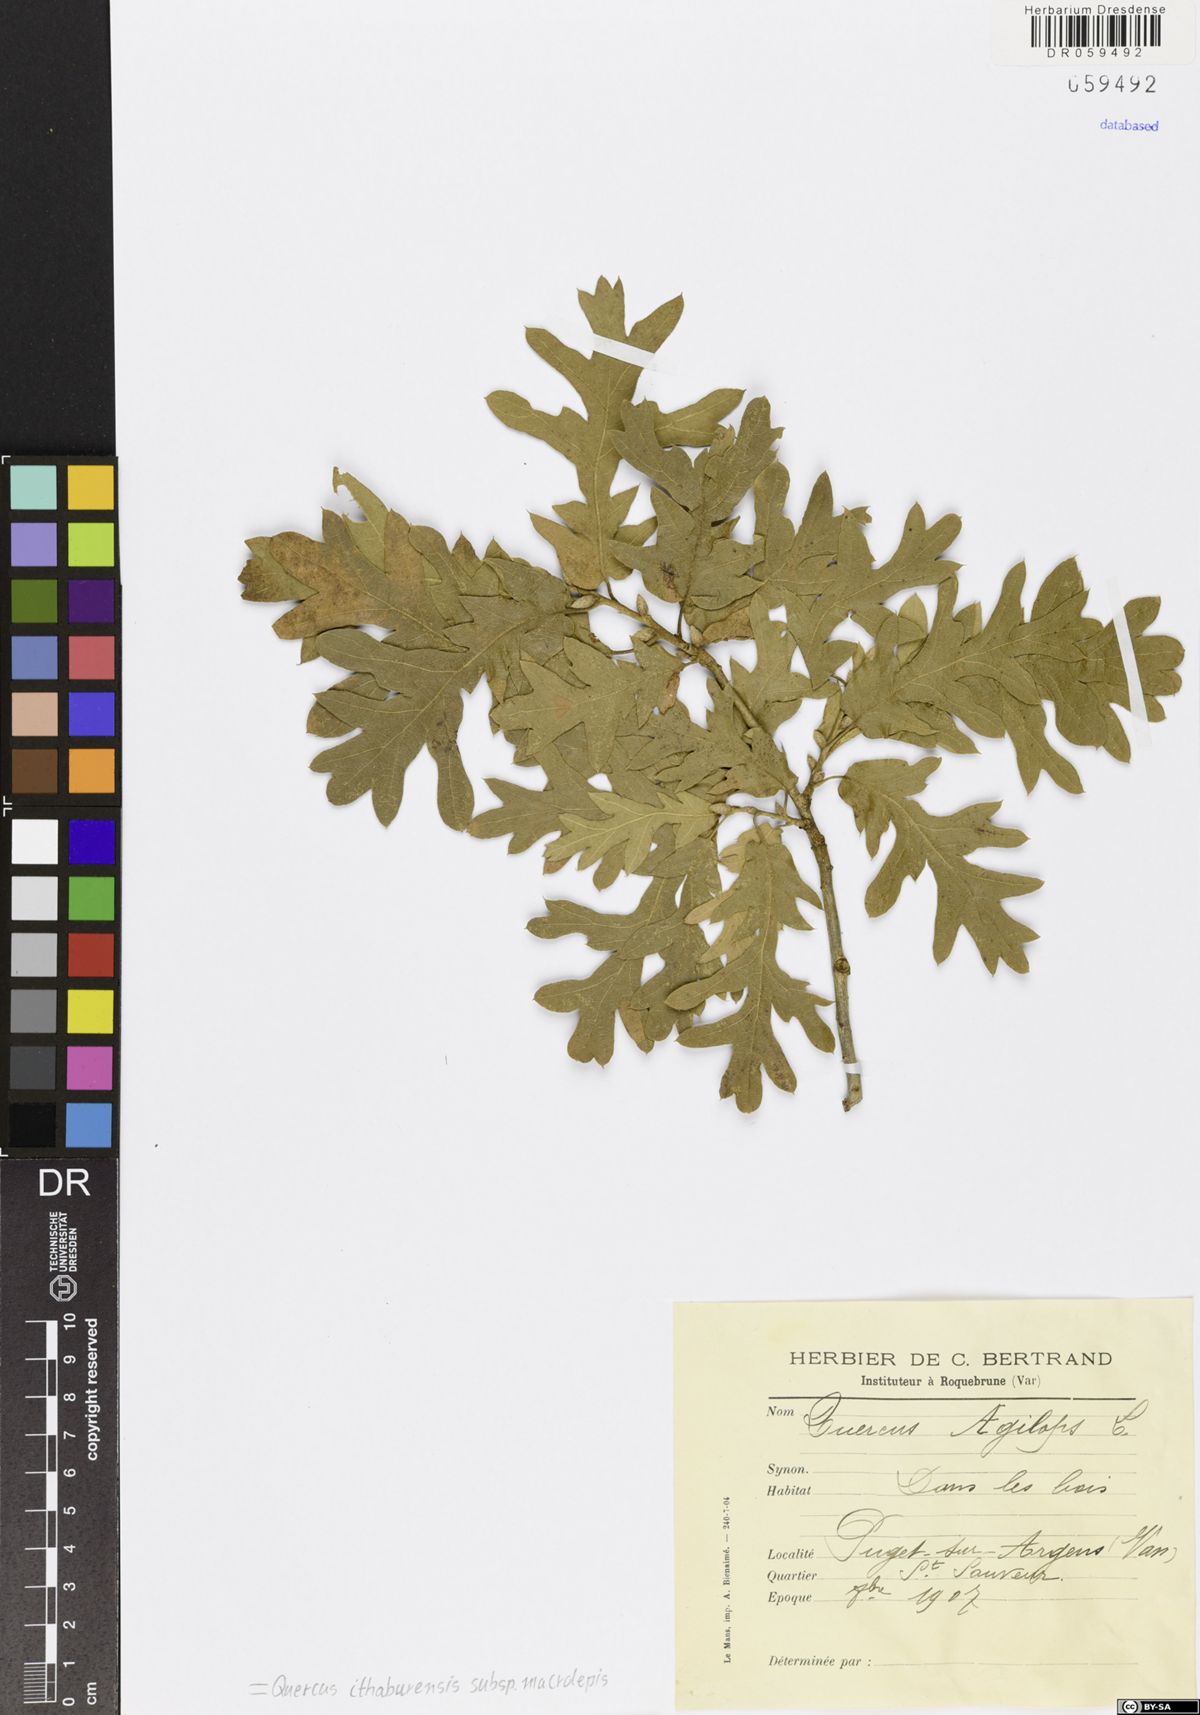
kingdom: Plantae
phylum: Tracheophyta
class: Magnoliopsida
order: Fagales
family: Fagaceae
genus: Quercus
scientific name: Quercus ithaburensis
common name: Tabor oak
